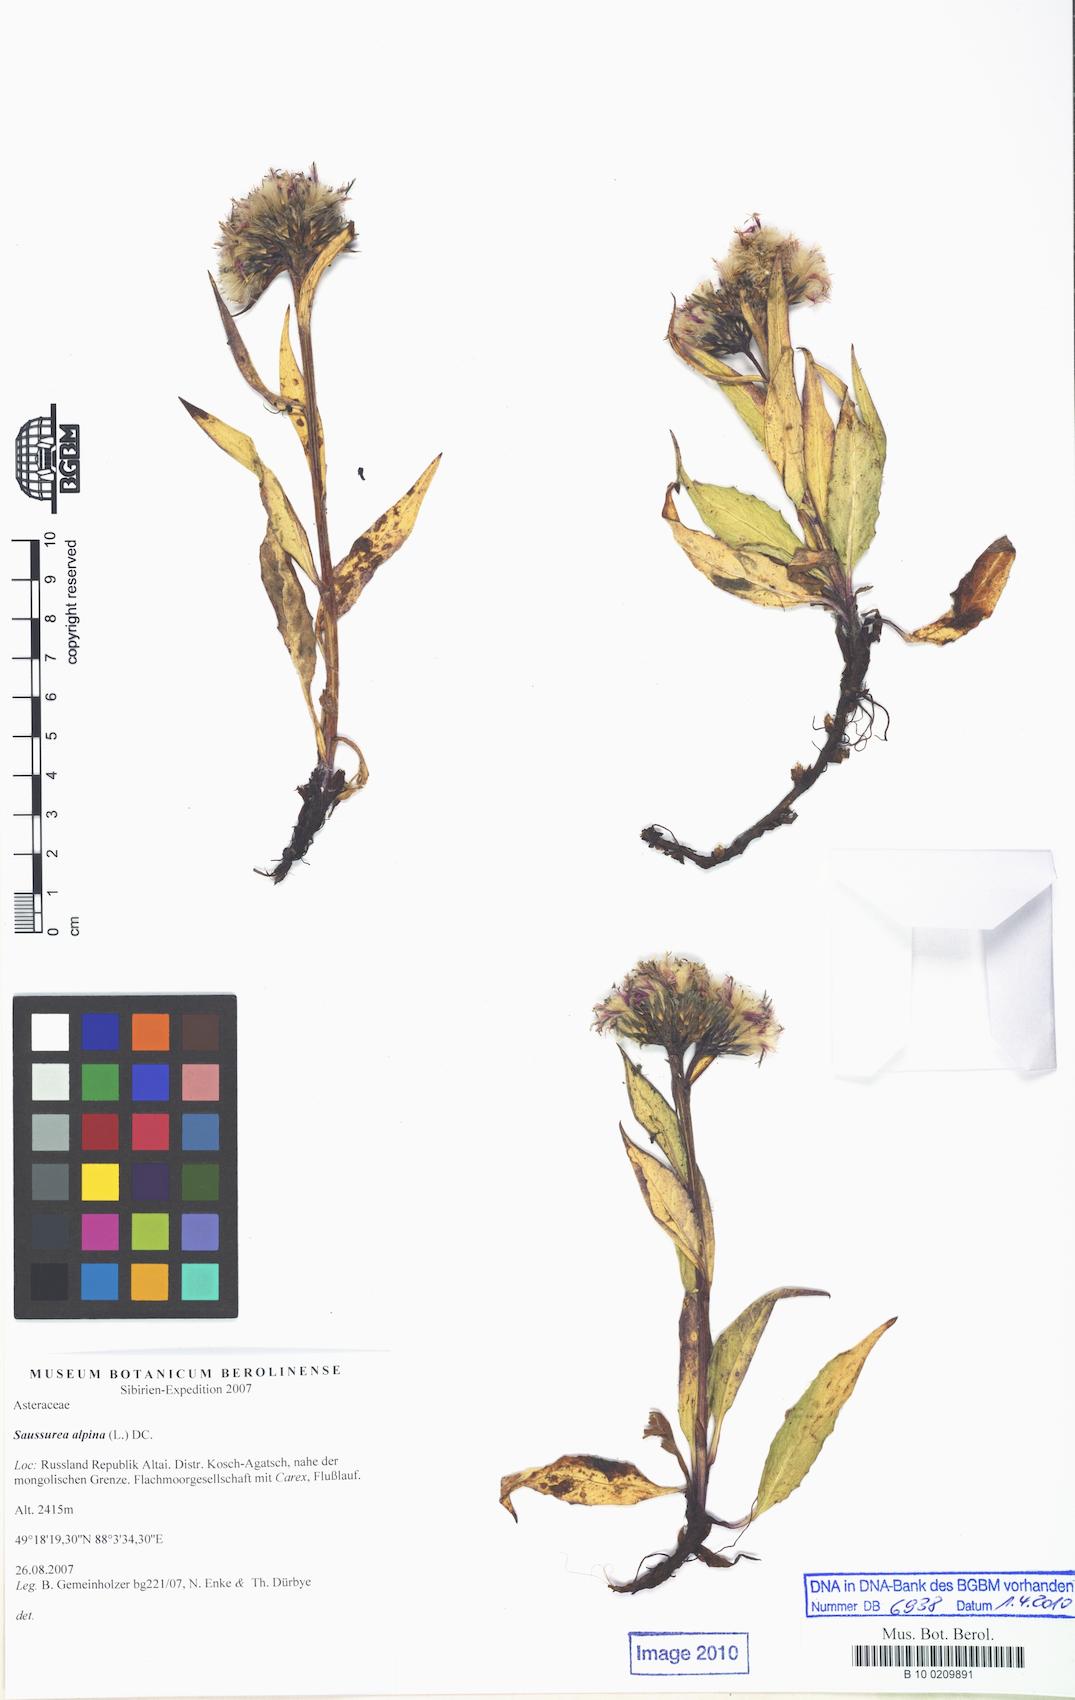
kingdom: Plantae
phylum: Tracheophyta
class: Magnoliopsida
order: Asterales
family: Asteraceae
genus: Saussurea
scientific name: Saussurea alpina
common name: Alpine saw-wort
